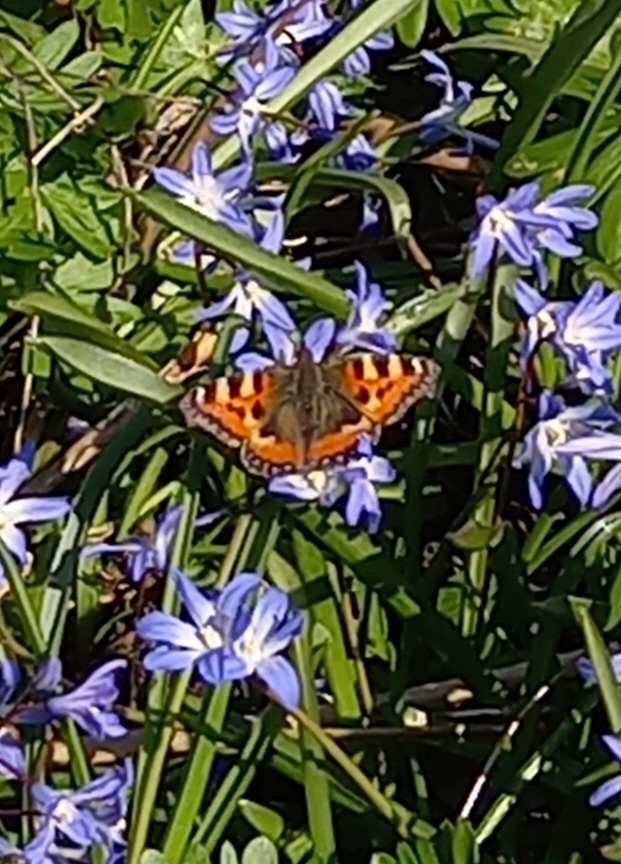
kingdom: Animalia
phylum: Arthropoda
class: Insecta
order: Lepidoptera
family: Nymphalidae
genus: Aglais
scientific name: Aglais urticae
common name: Nældens takvinge
